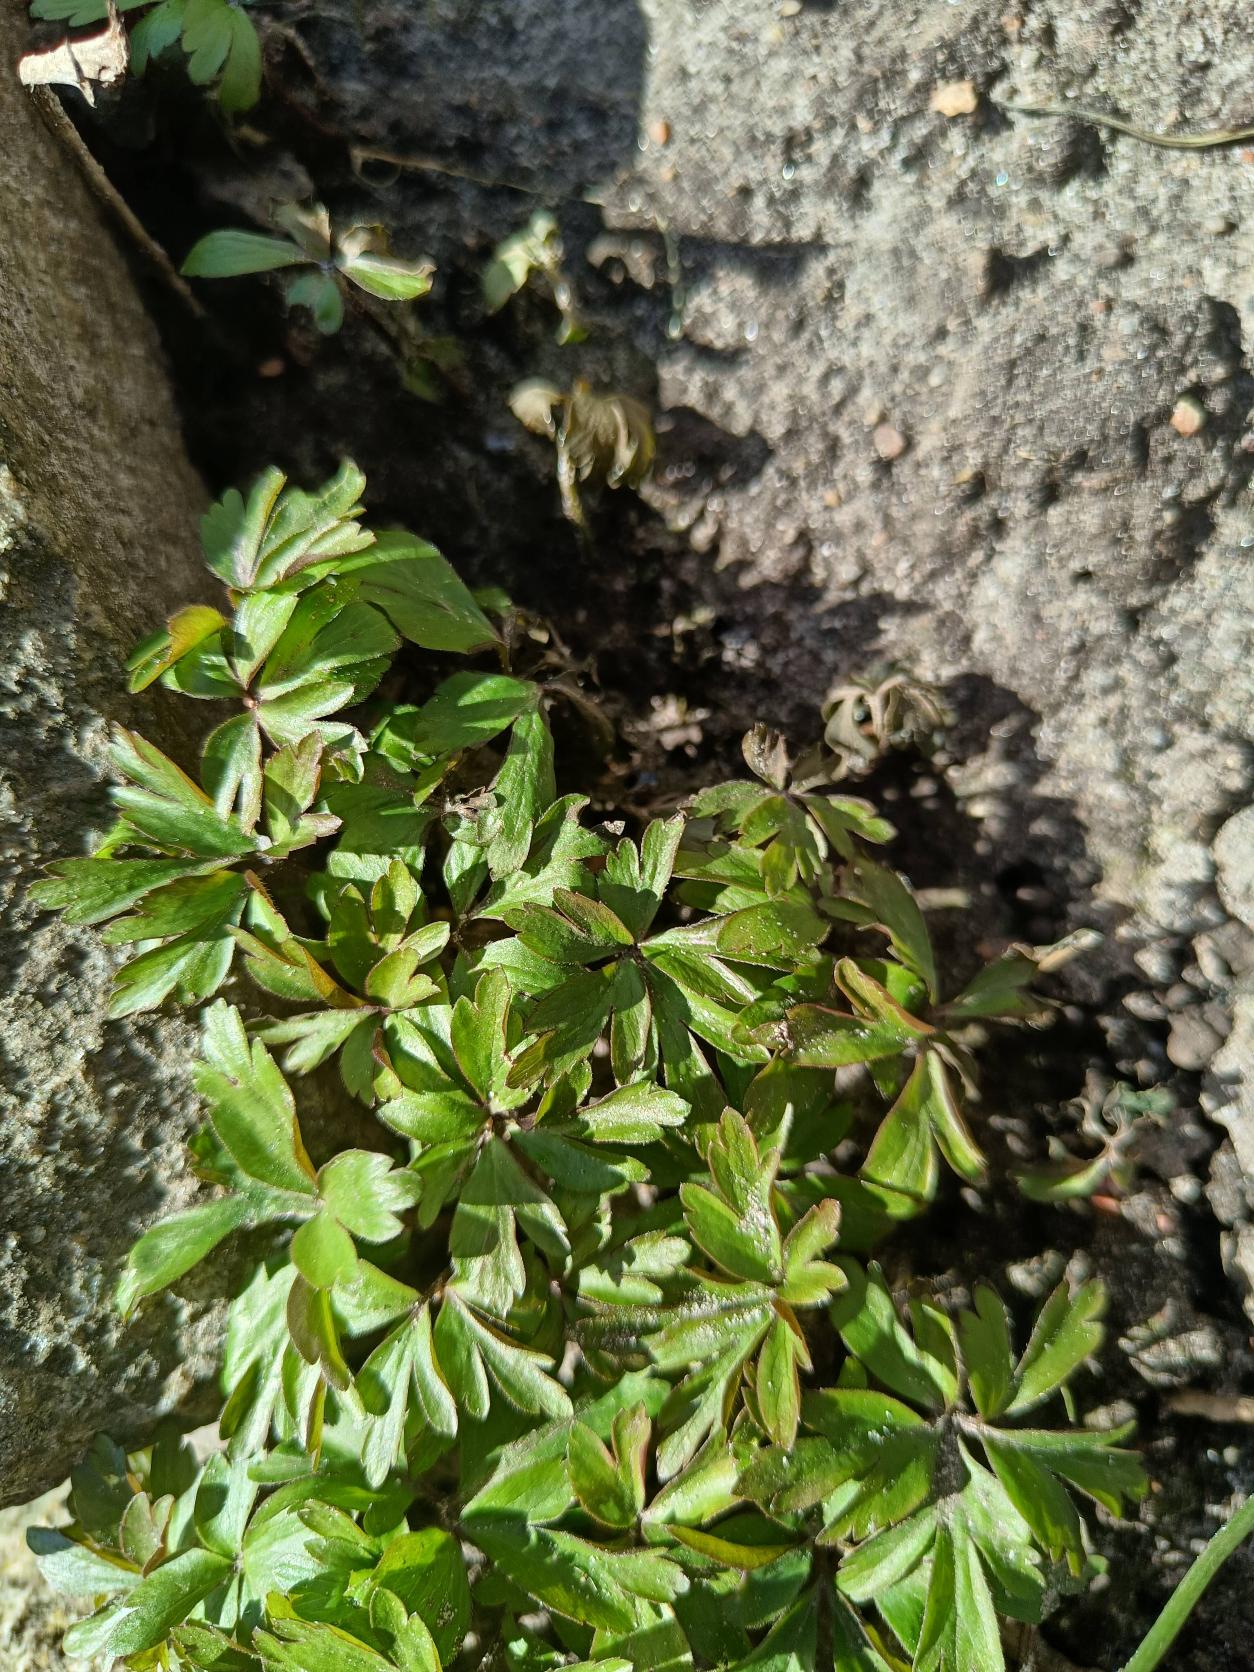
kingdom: Plantae
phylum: Tracheophyta
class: Magnoliopsida
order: Ranunculales
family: Ranunculaceae
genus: Anemone
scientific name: Anemone nemorosa
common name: Hvid anemone
